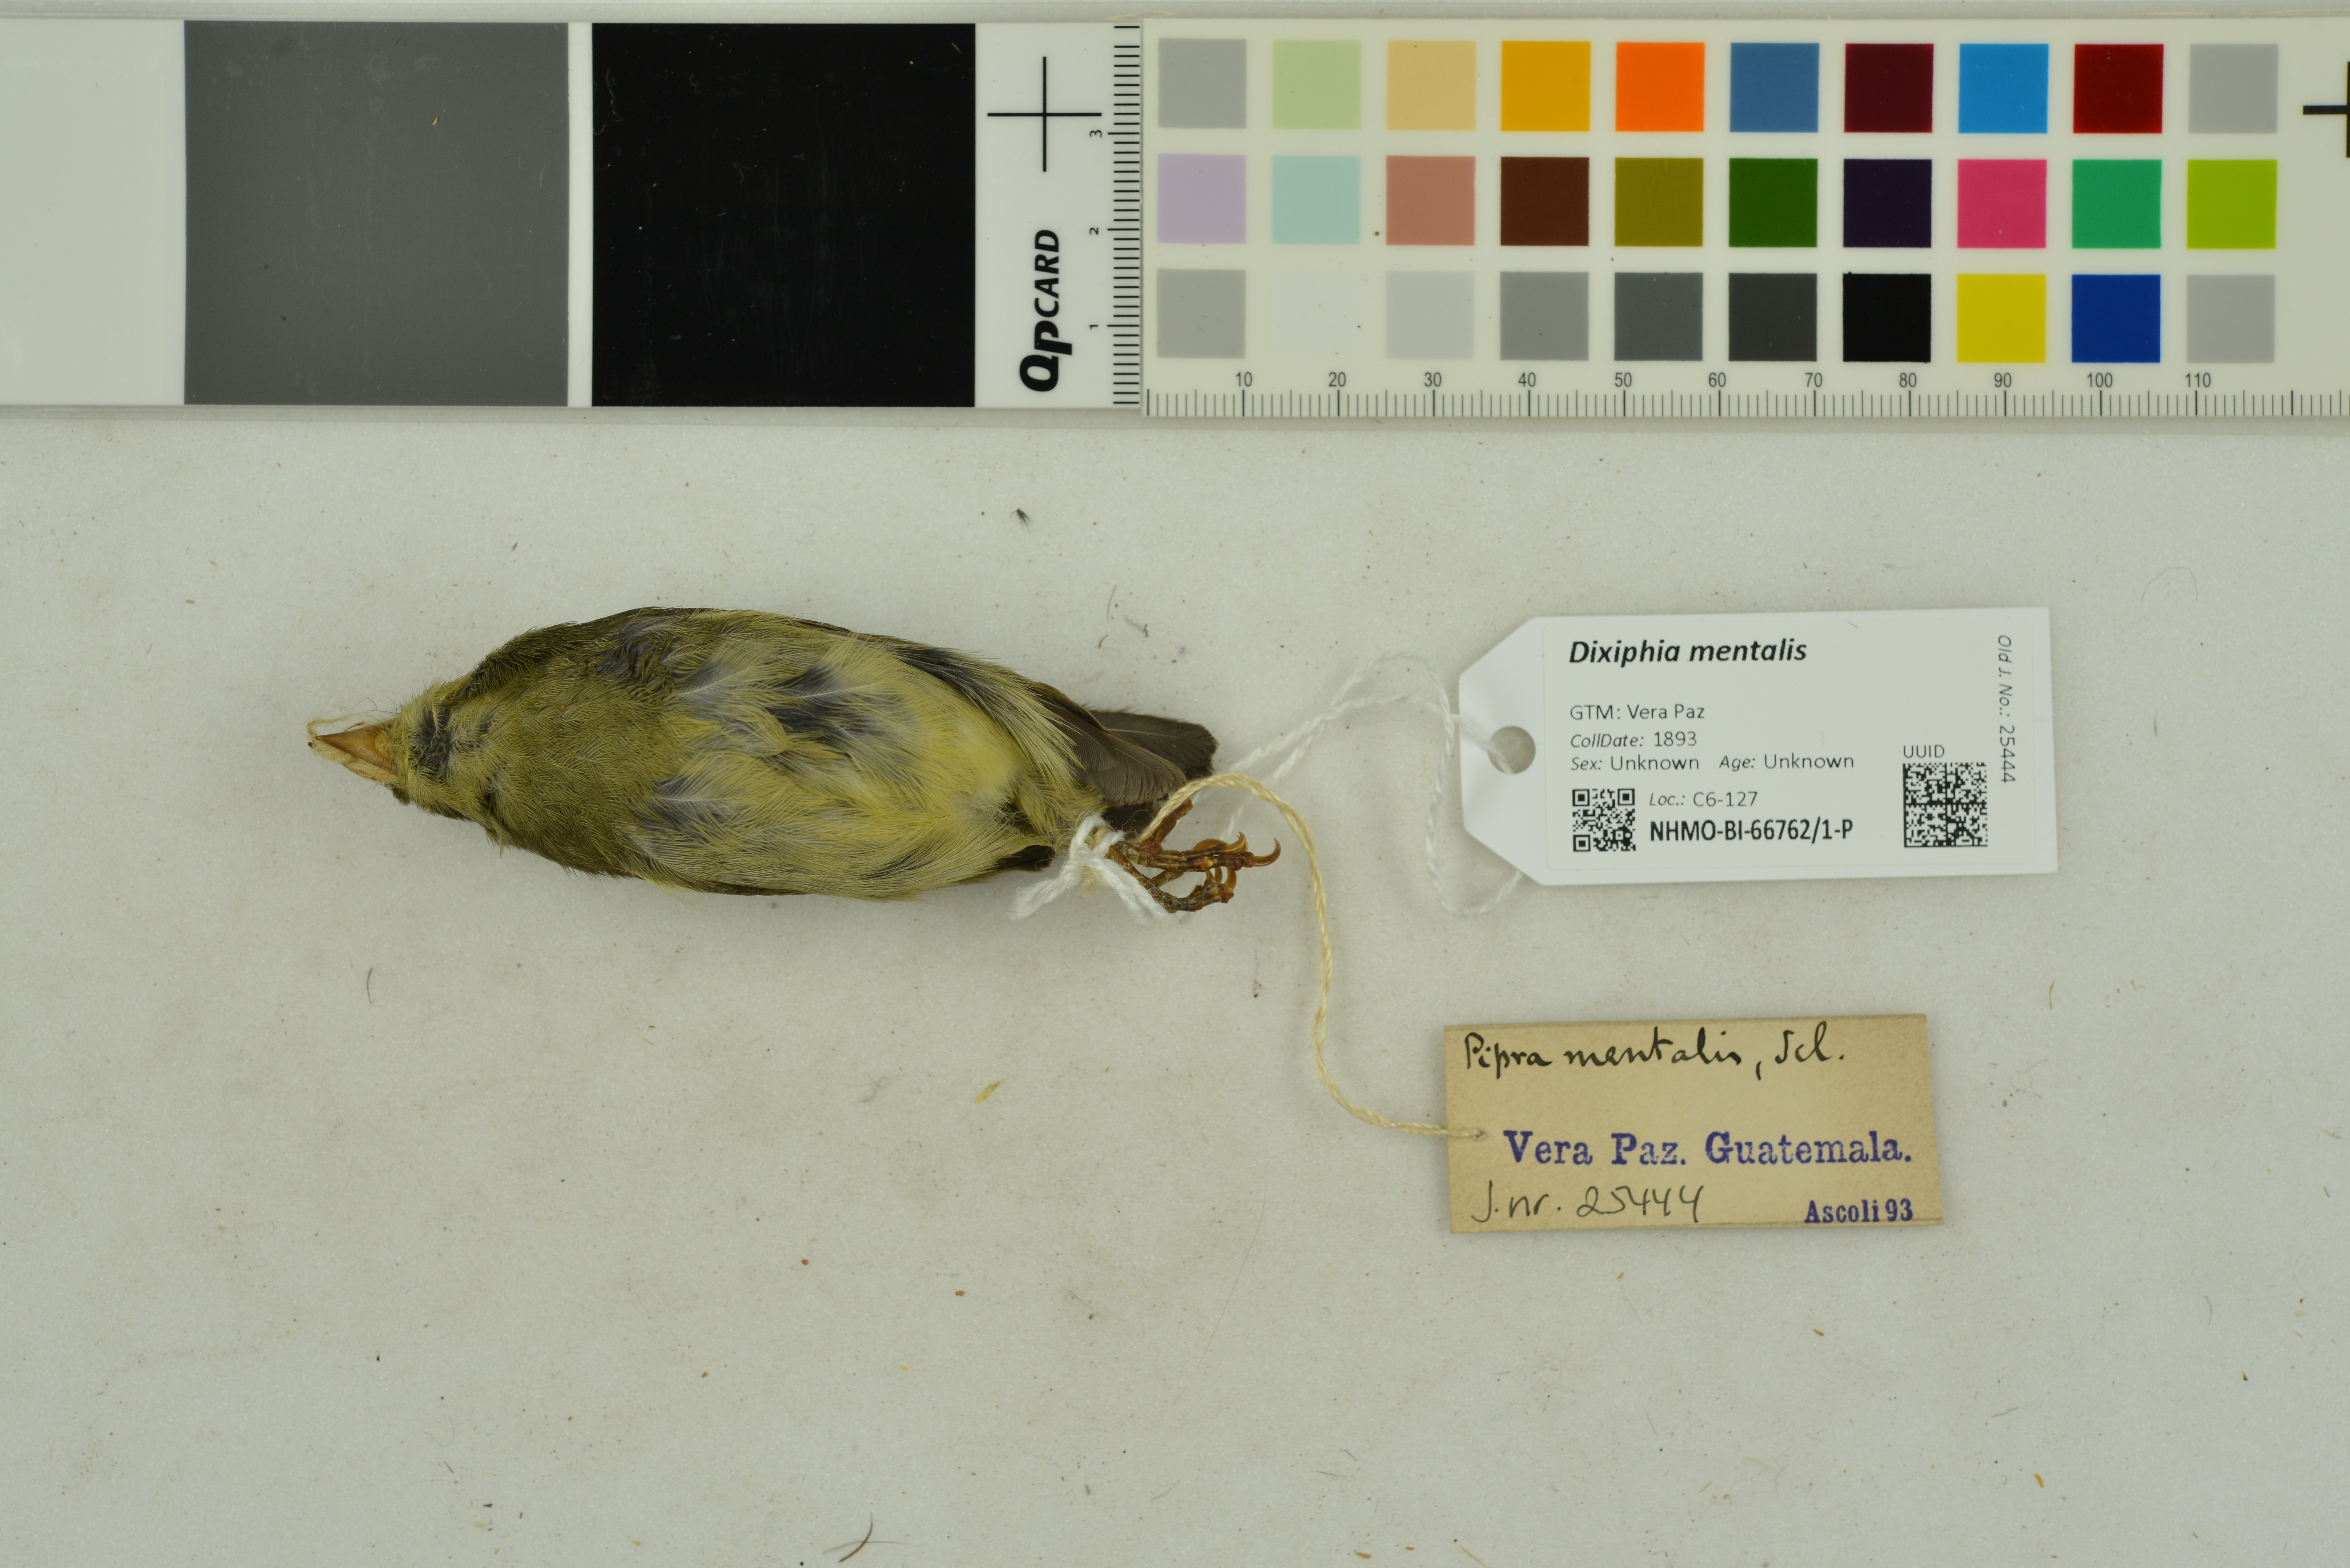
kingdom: Animalia
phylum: Chordata
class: Aves
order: Passeriformes
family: Pipridae
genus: Pipra
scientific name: Pipra mentalis
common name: Red-capped manakin
